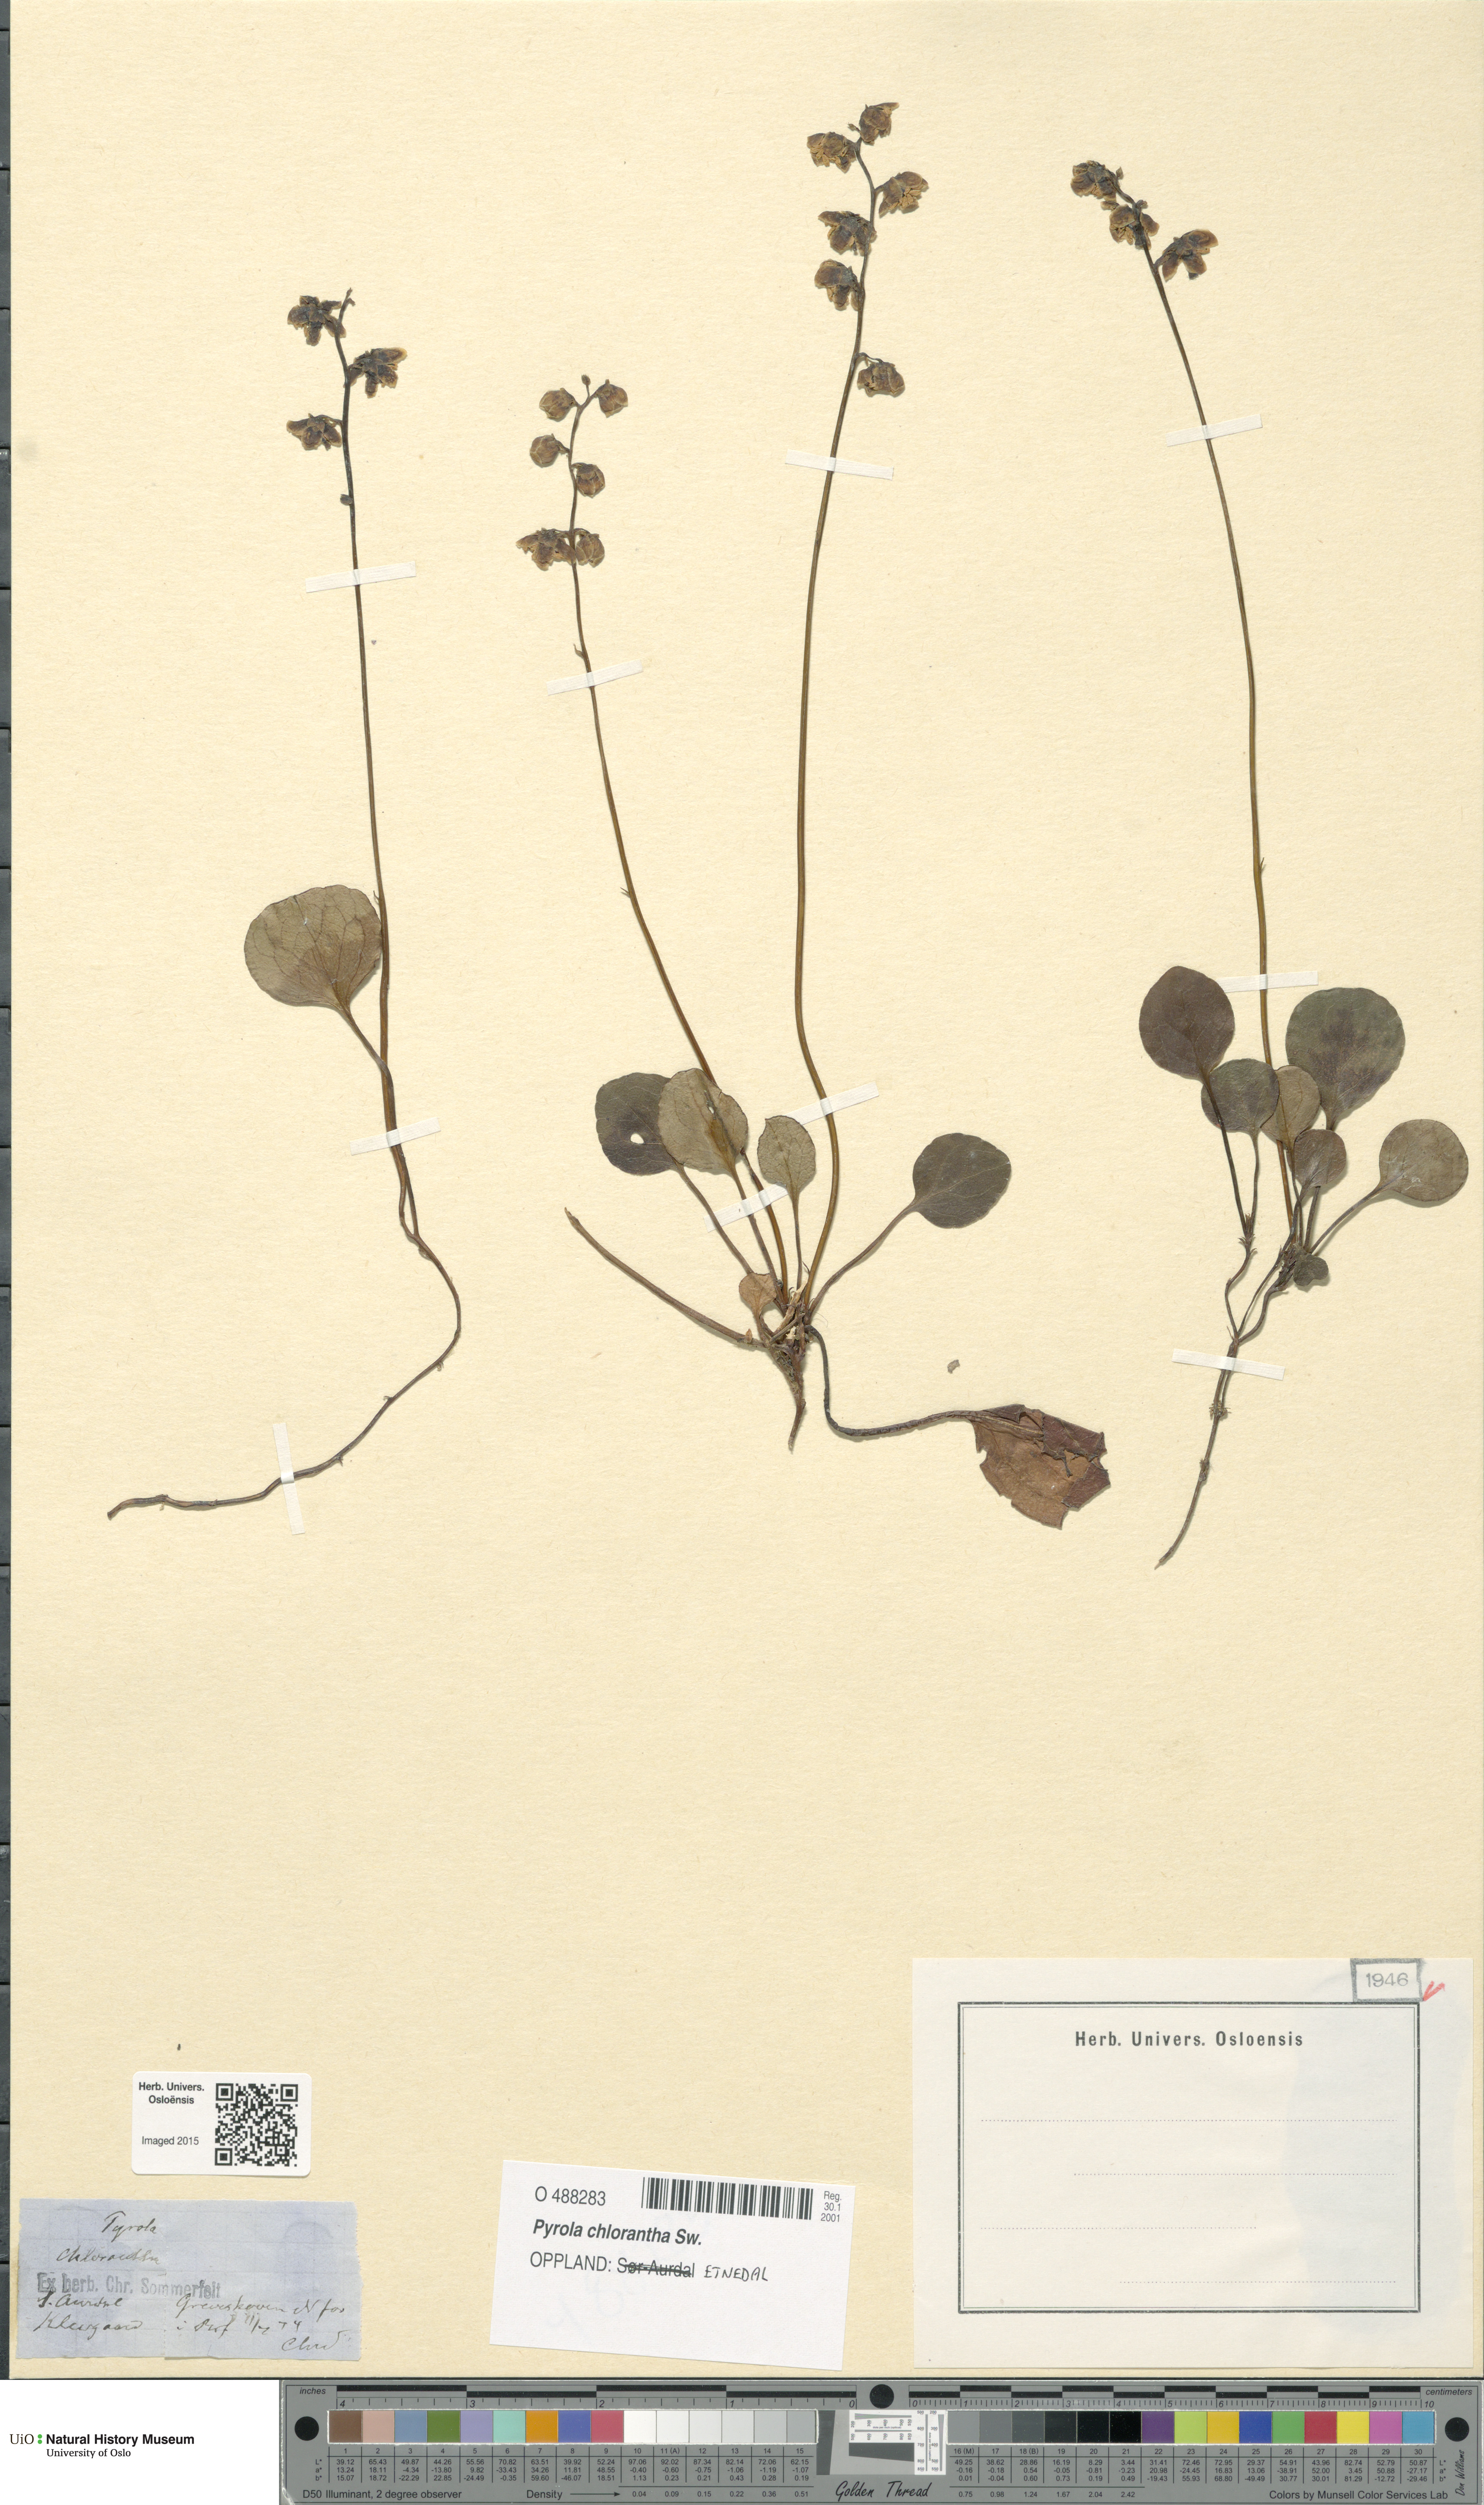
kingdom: Plantae
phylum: Tracheophyta
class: Magnoliopsida
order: Ericales
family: Ericaceae
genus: Pyrola
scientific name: Pyrola chlorantha
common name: Green wintergreen
